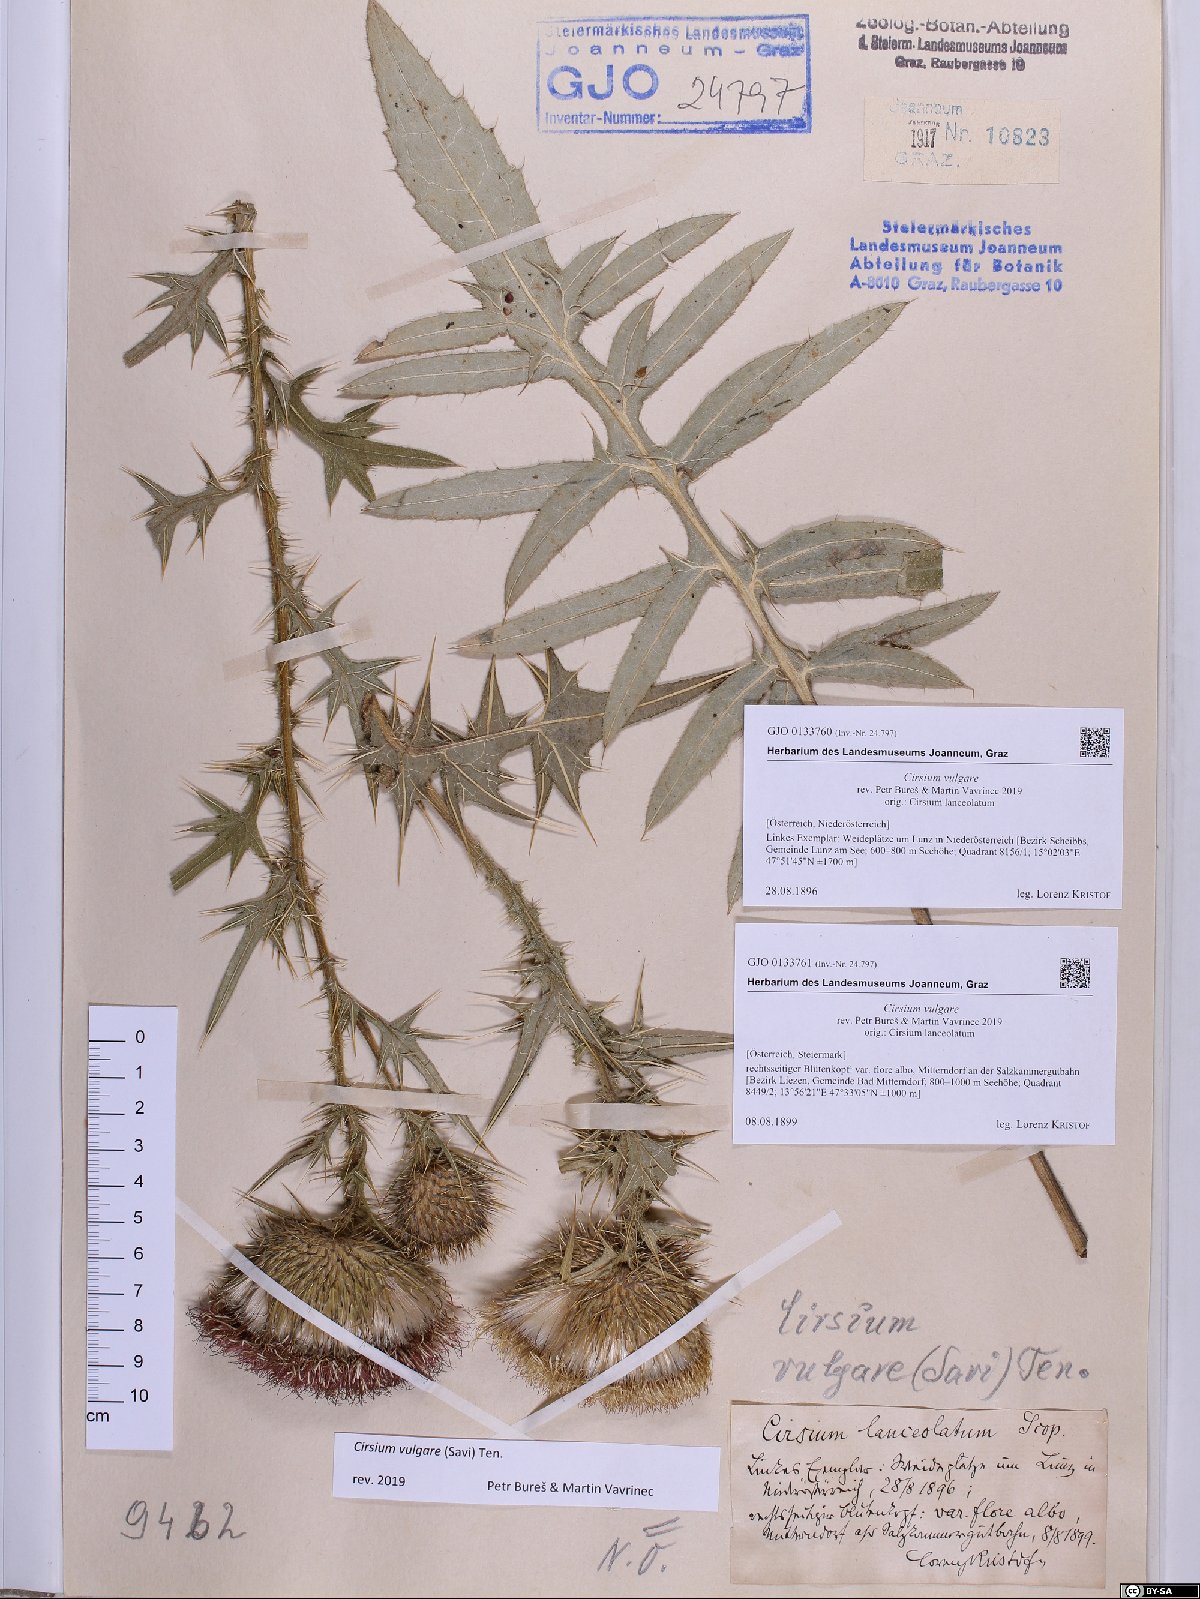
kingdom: Plantae
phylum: Tracheophyta
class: Magnoliopsida
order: Asterales
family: Asteraceae
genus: Cirsium
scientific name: Cirsium vulgare
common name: Bull thistle
